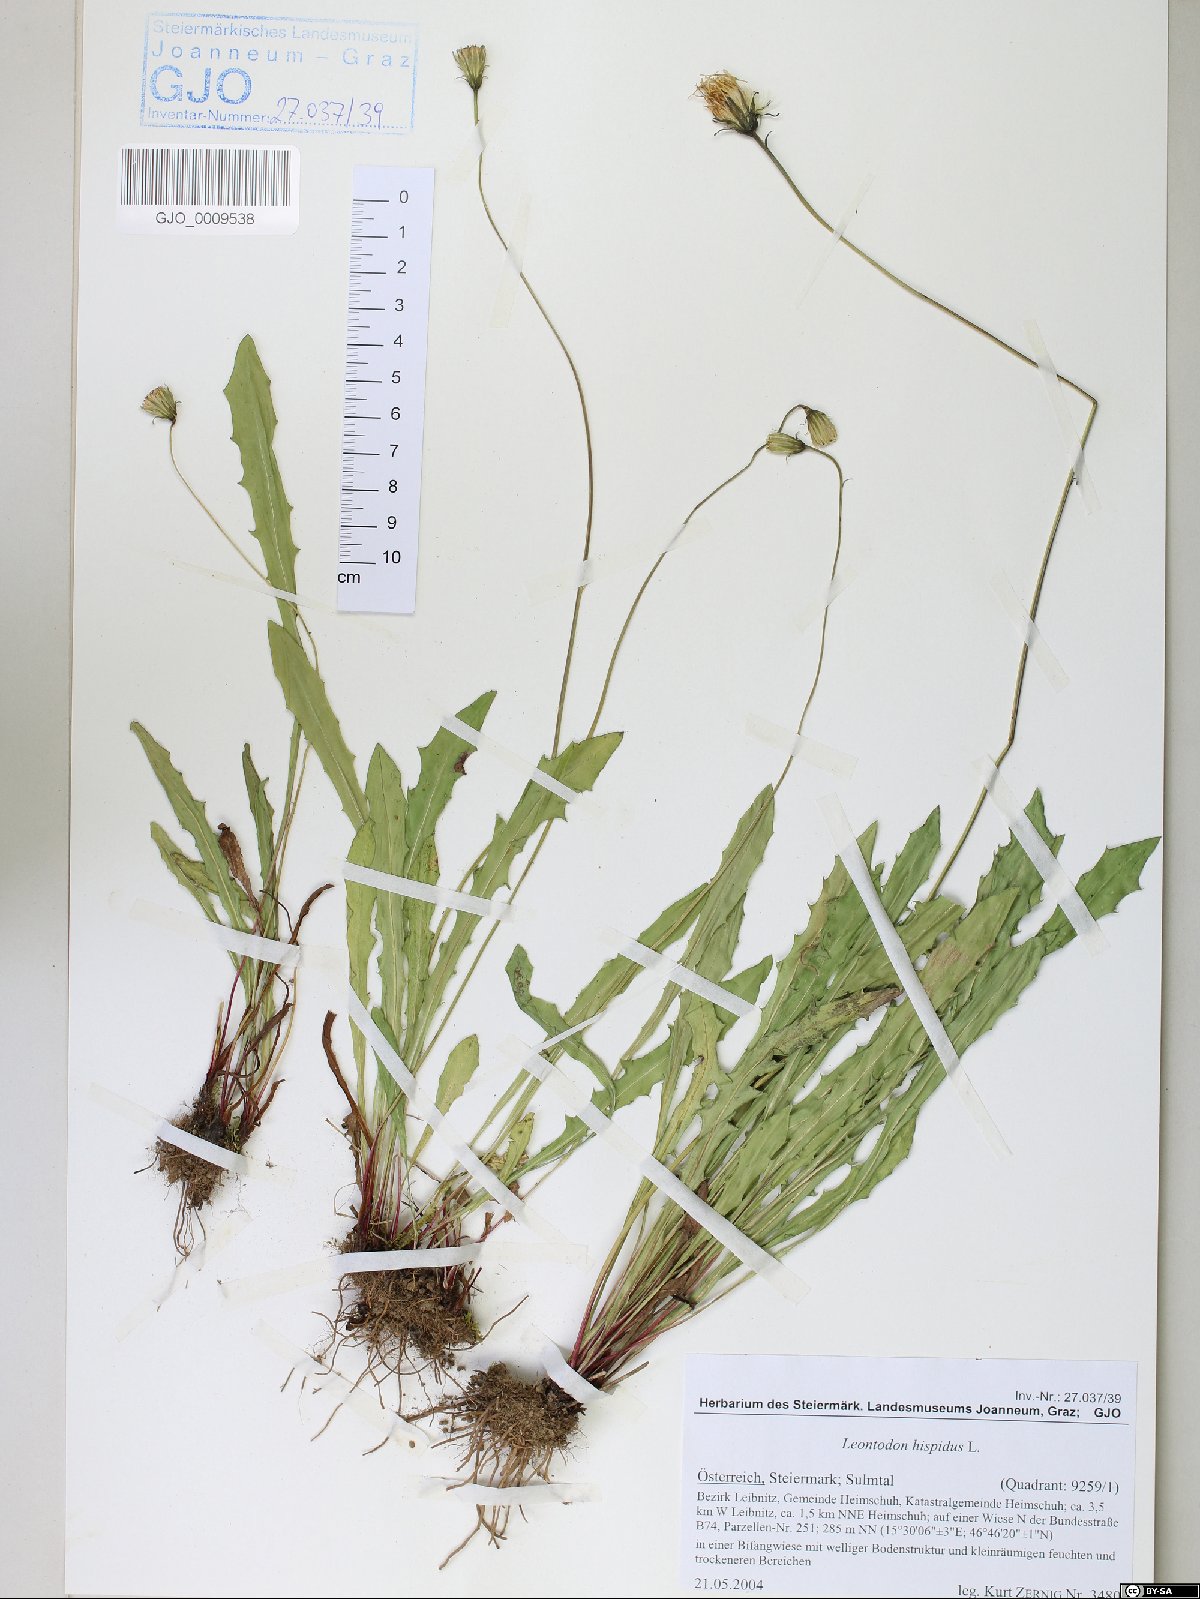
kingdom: Plantae
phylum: Tracheophyta
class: Magnoliopsida
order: Asterales
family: Asteraceae
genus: Leontodon
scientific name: Leontodon hispidus
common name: Rough hawkbit
